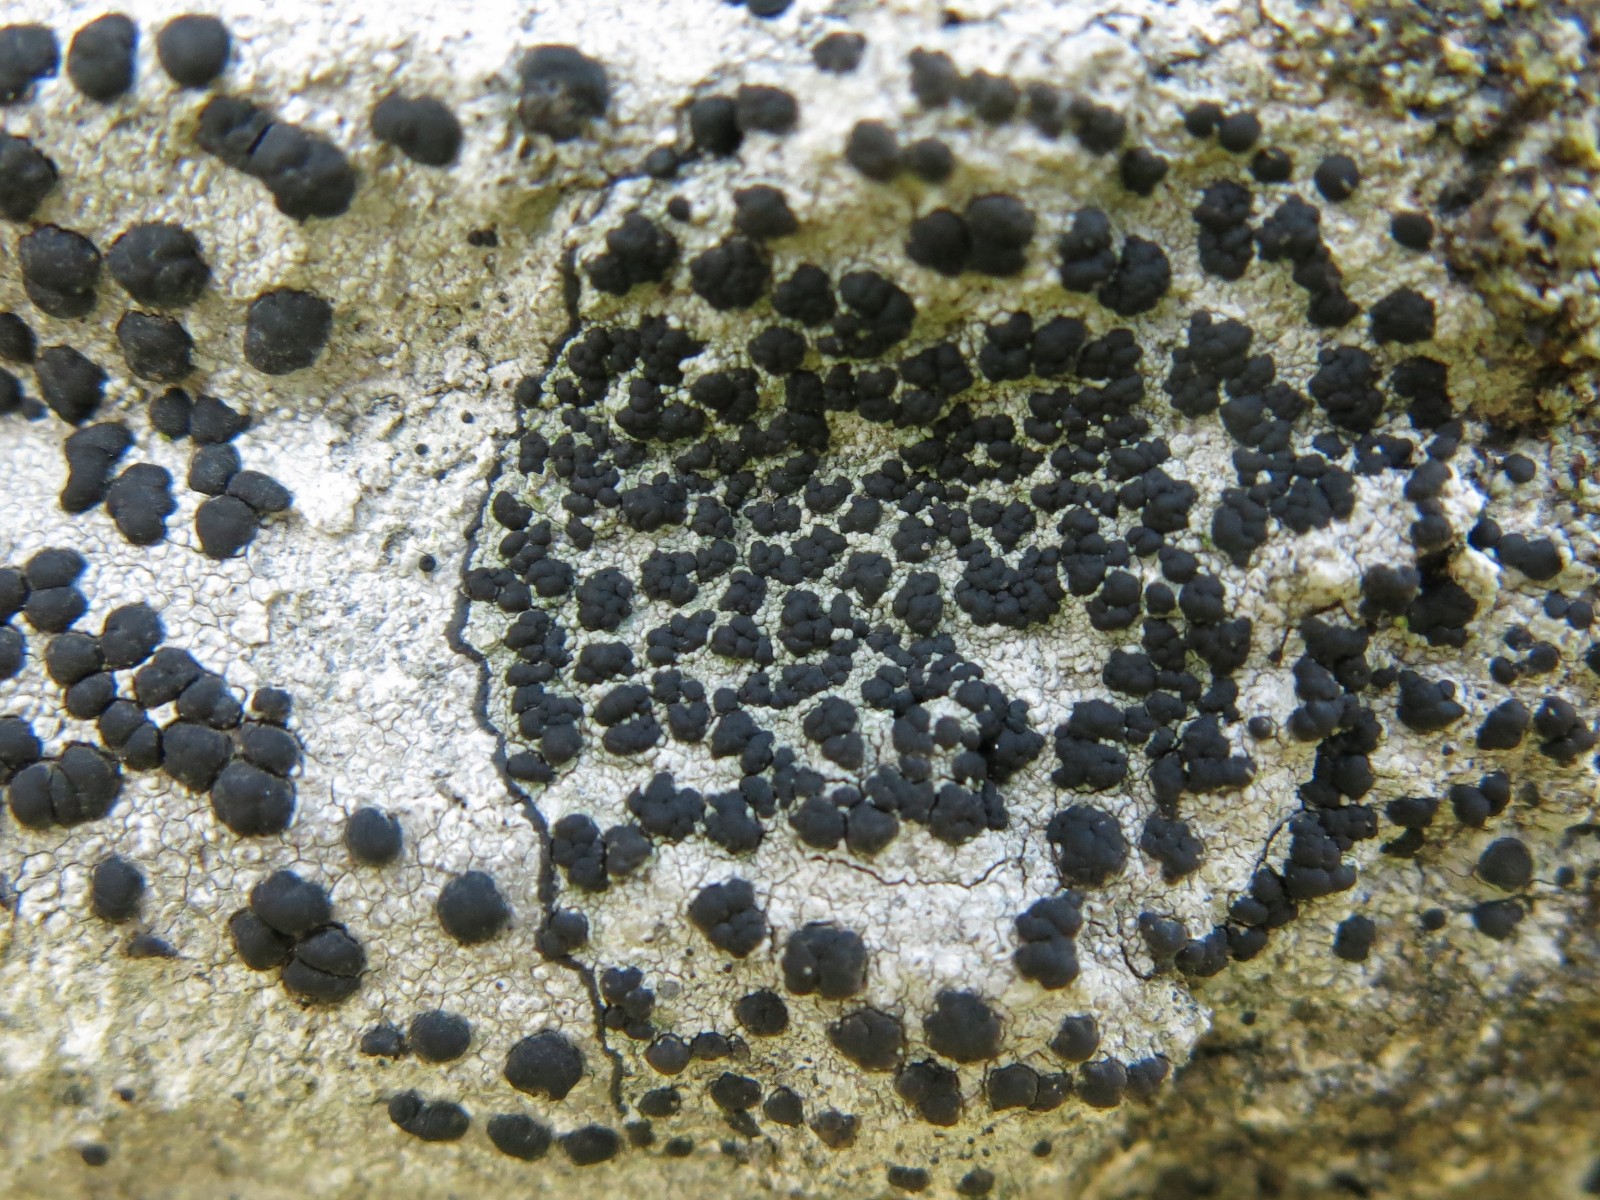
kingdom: Fungi
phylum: Ascomycota
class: Lecanoromycetes
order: Lecideales
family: Lecideaceae
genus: Porpidia
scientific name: Porpidia macrocarpa
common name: almindelig bredskivelav
